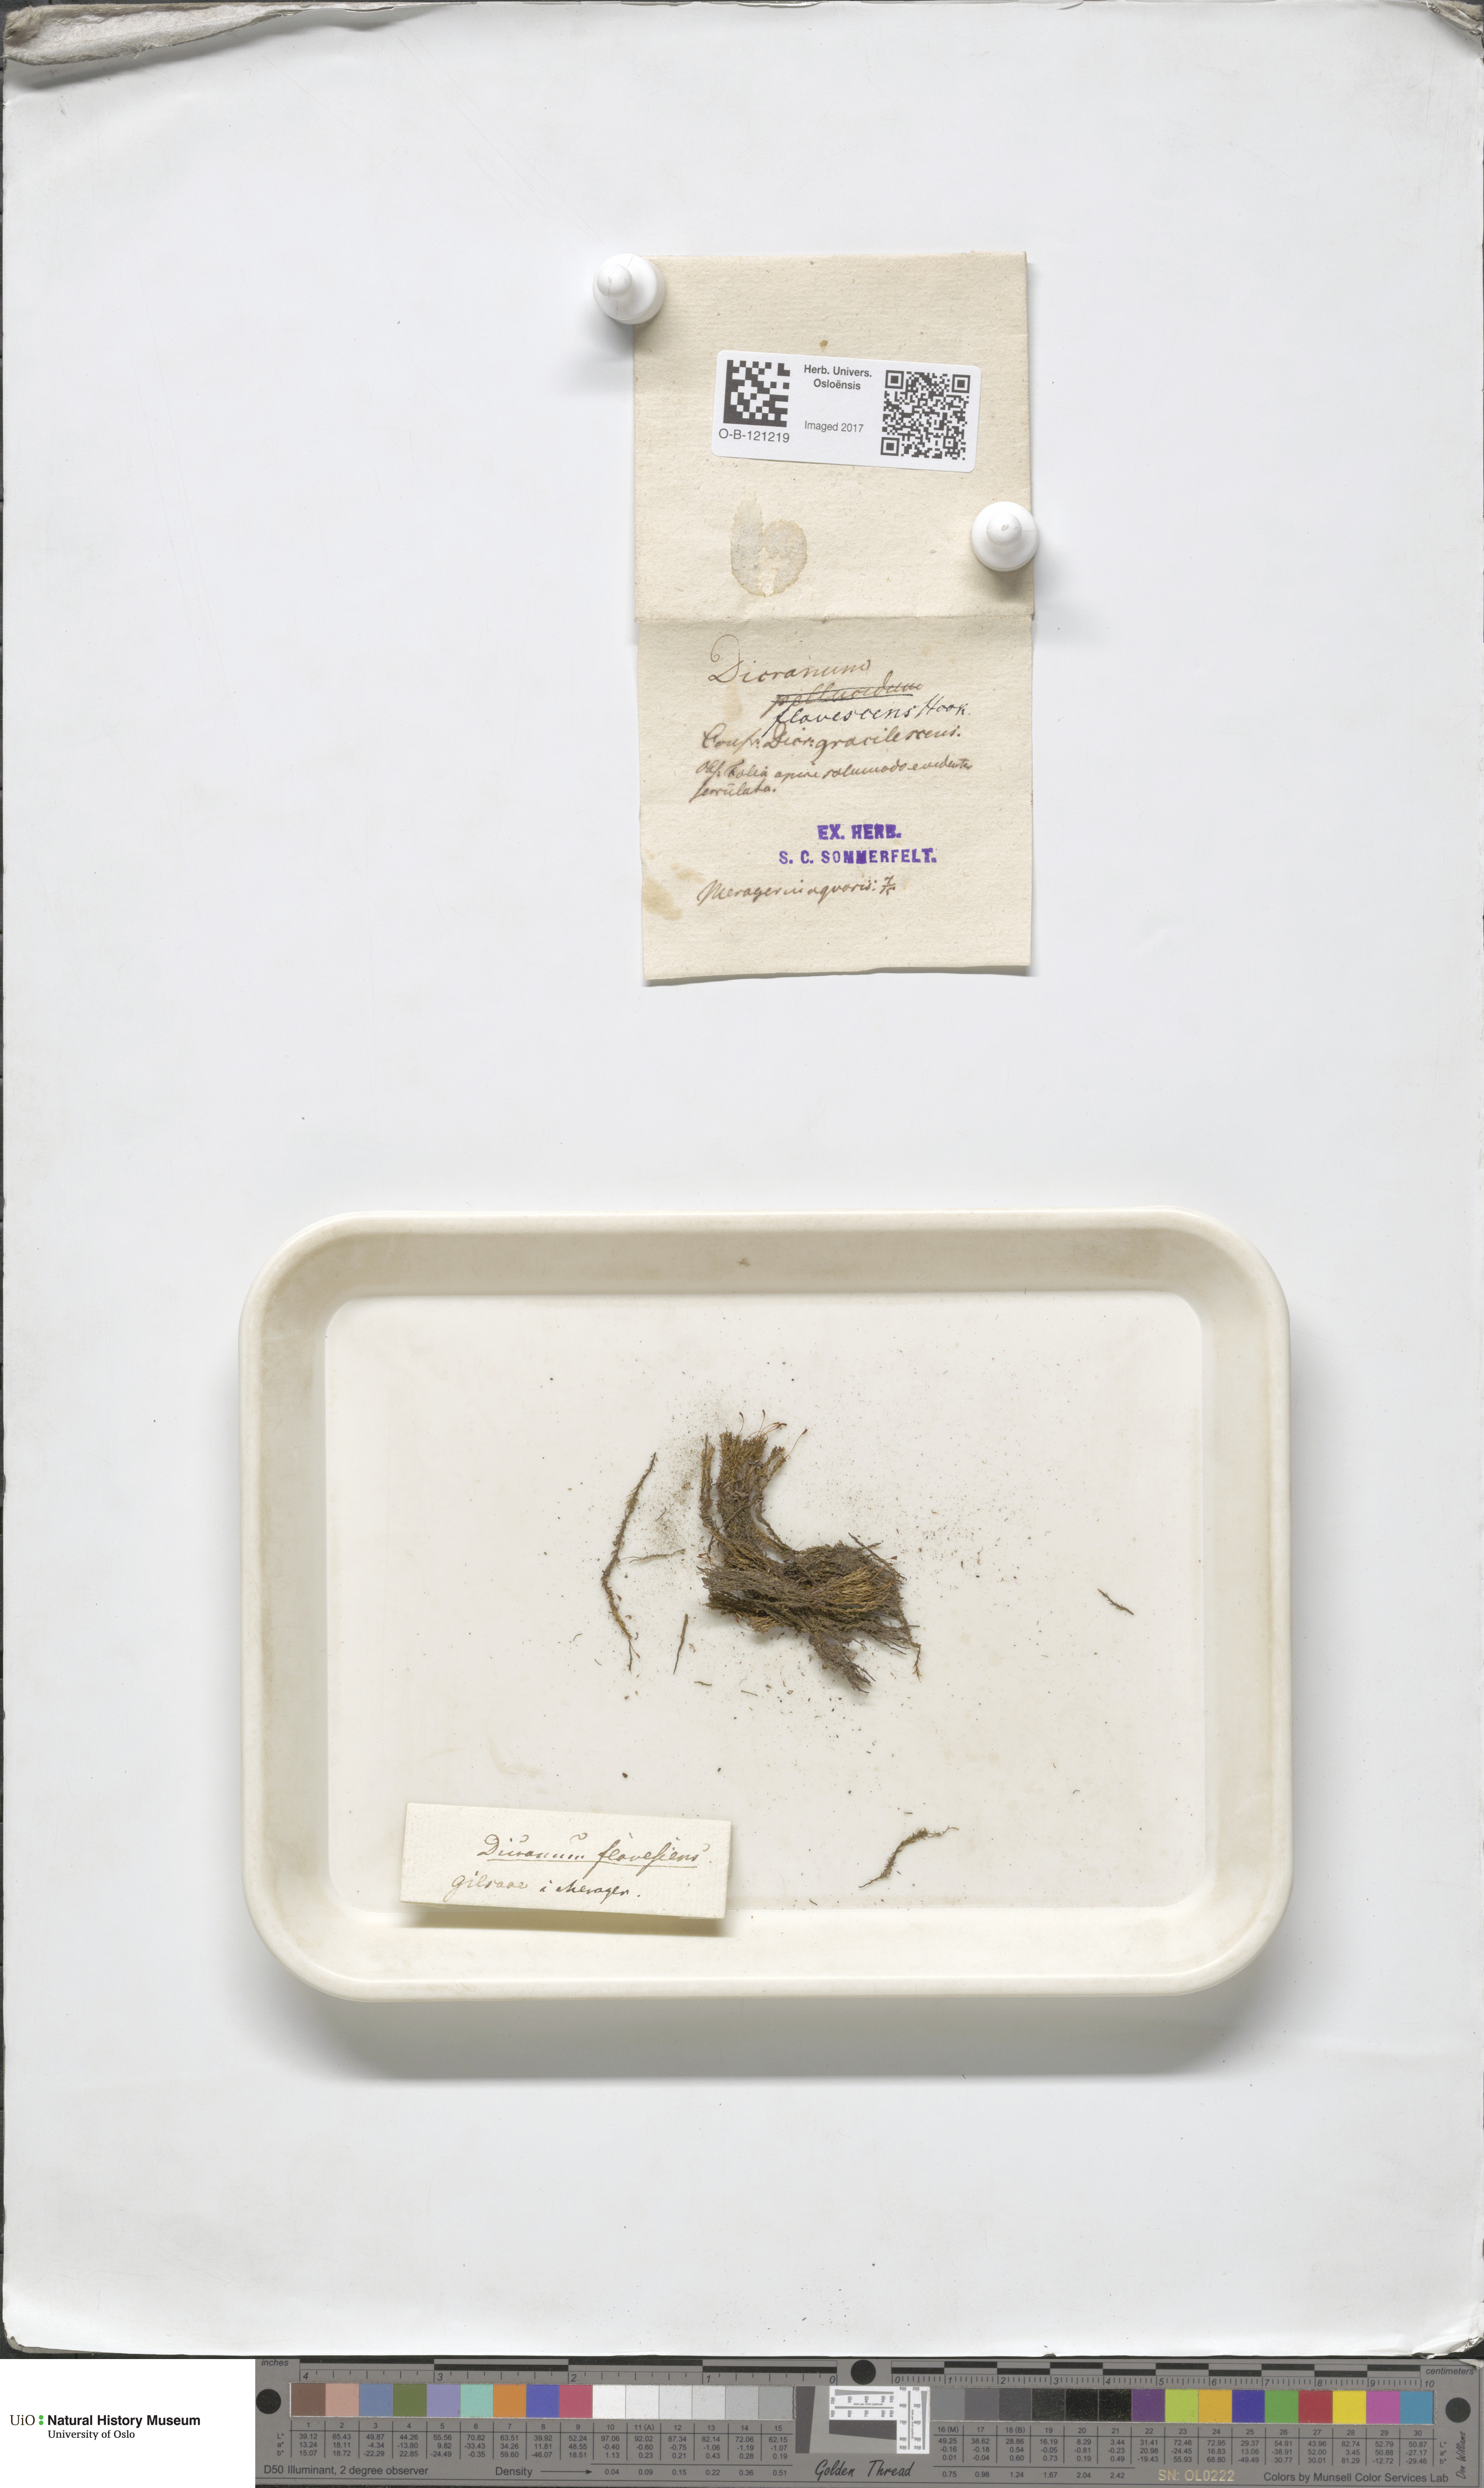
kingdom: Plantae
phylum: Bryophyta
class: Bryopsida
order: Dicranales
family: Aongstroemiaceae
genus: Dichodontium
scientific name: Dichodontium pellucidum
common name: Transparent fork moss
